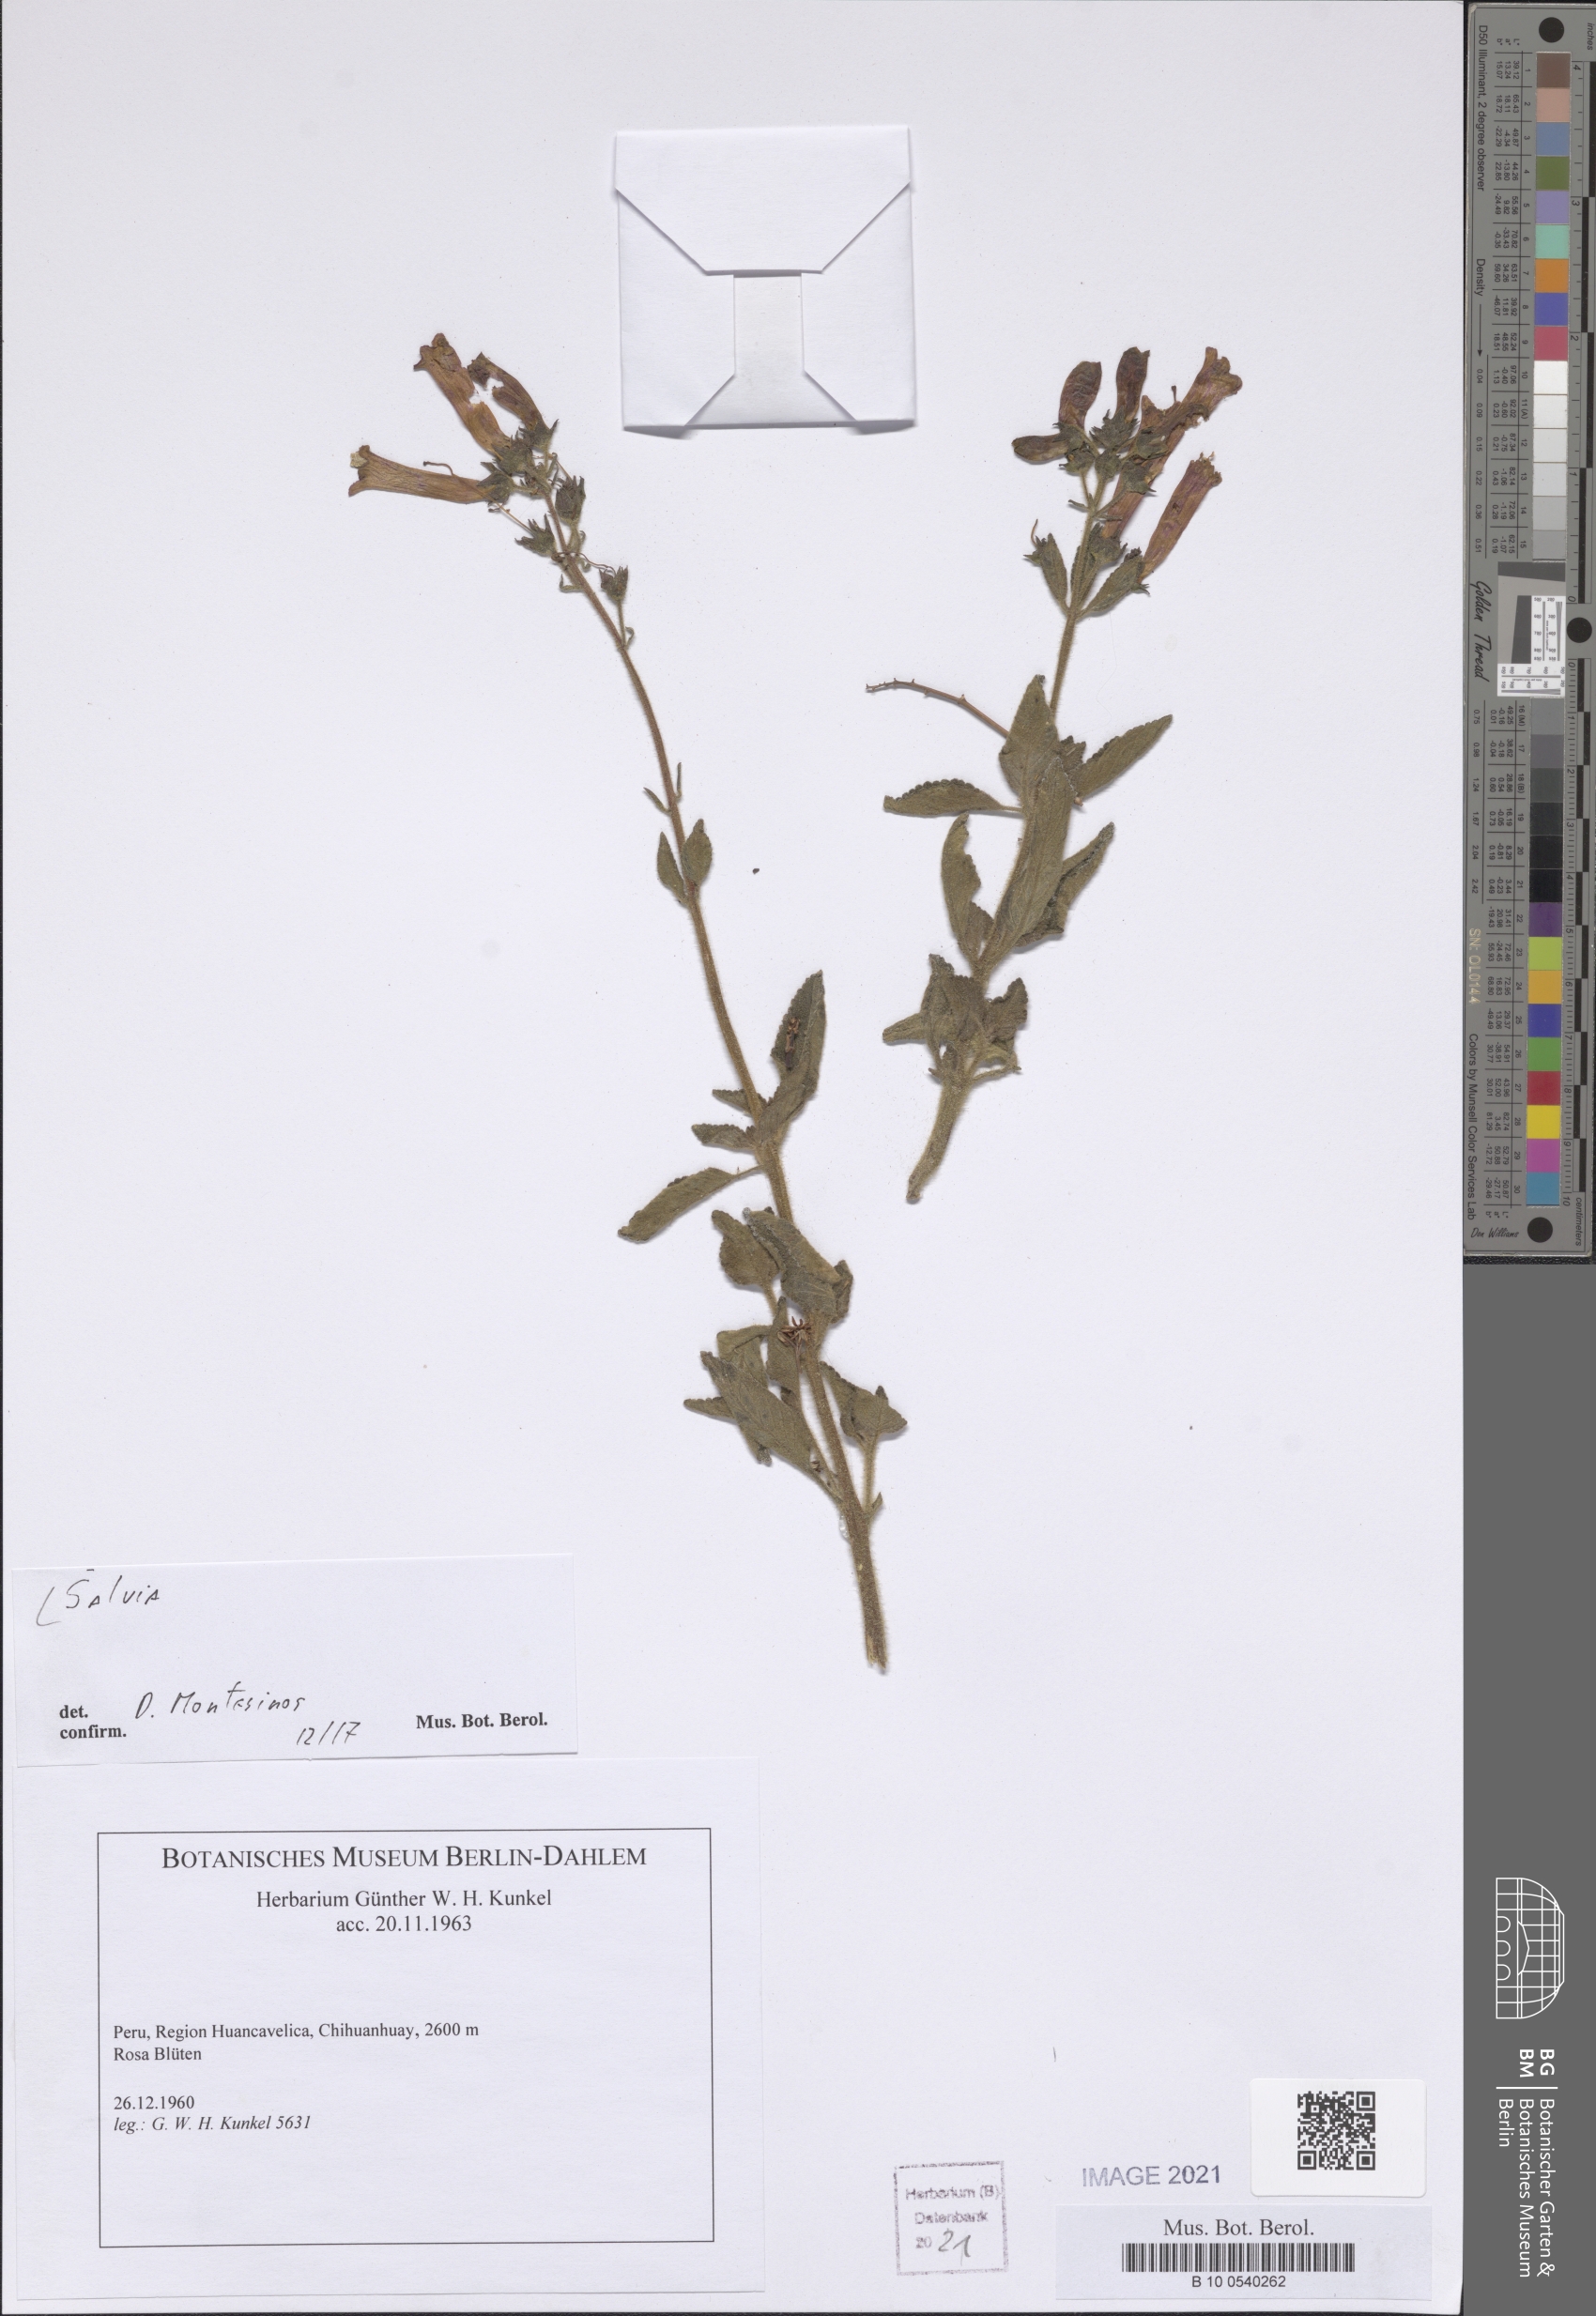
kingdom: Plantae
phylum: Tracheophyta
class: Magnoliopsida
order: Lamiales
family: Lamiaceae
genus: Salvia
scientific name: Salvia
